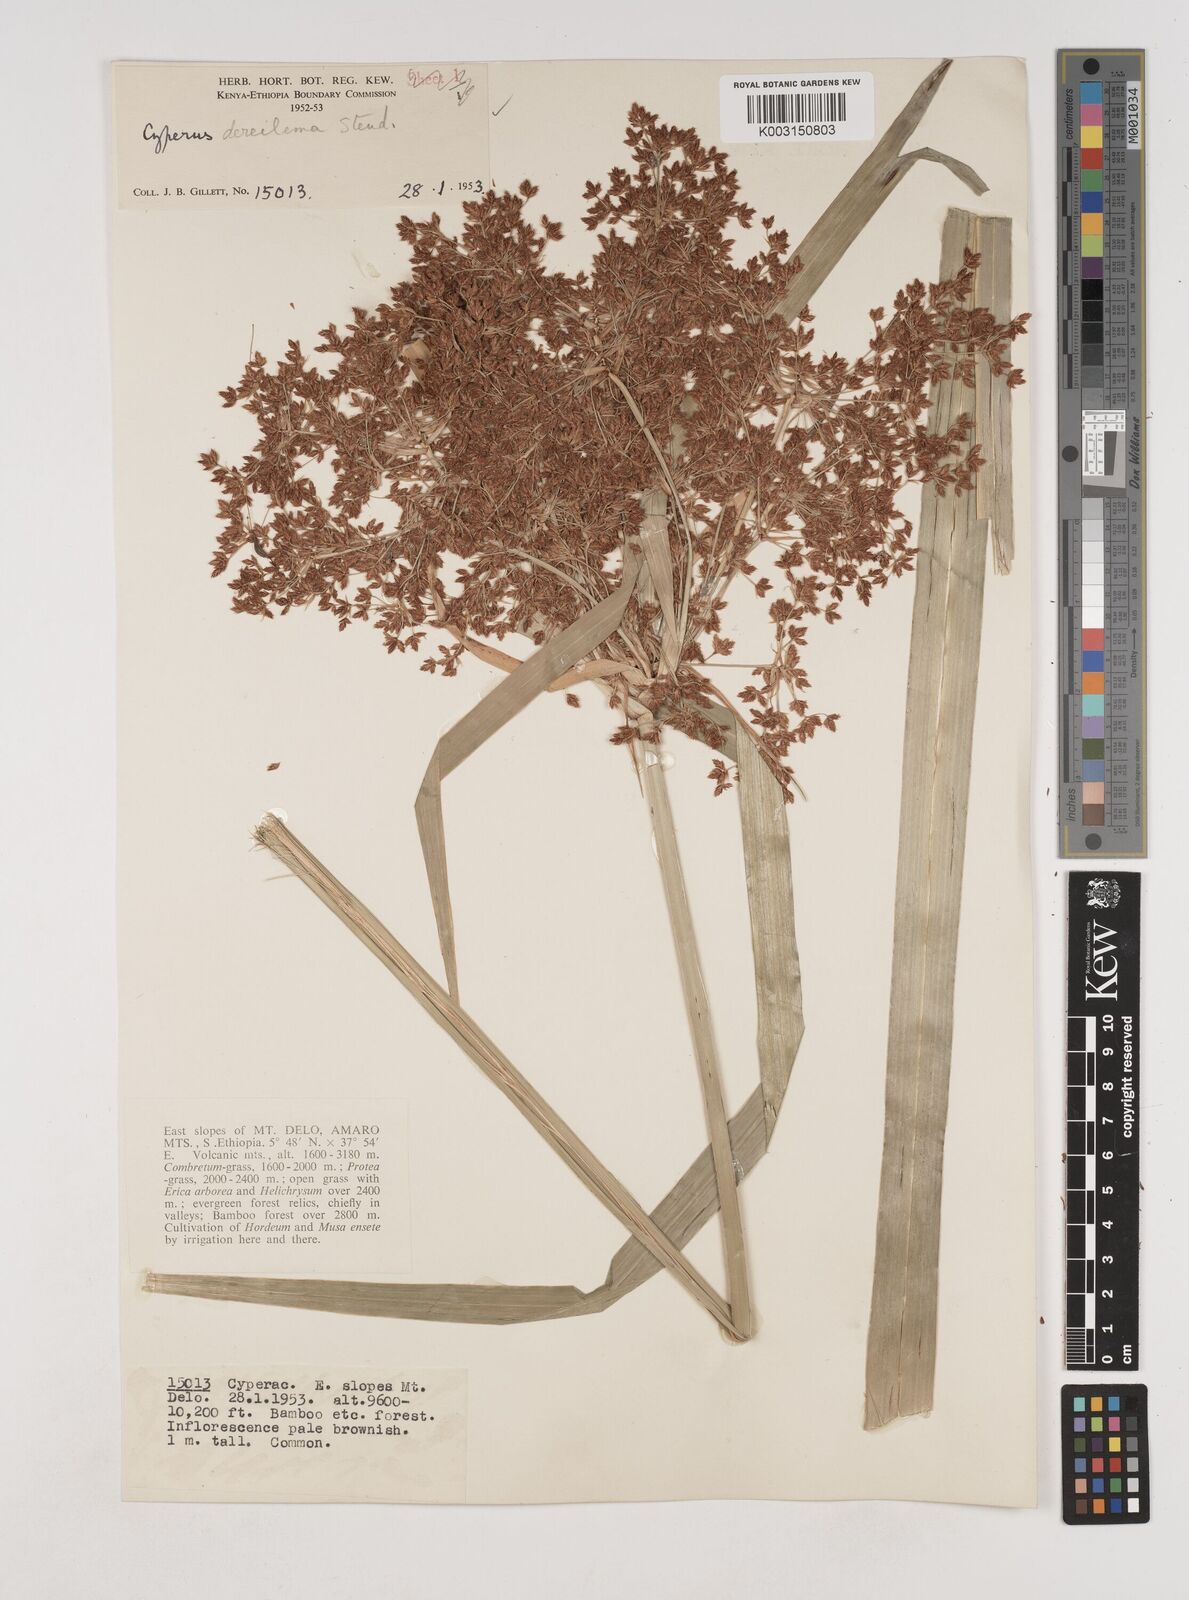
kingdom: Plantae
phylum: Tracheophyta
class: Liliopsida
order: Poales
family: Cyperaceae
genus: Cyperus
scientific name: Cyperus derreilema
